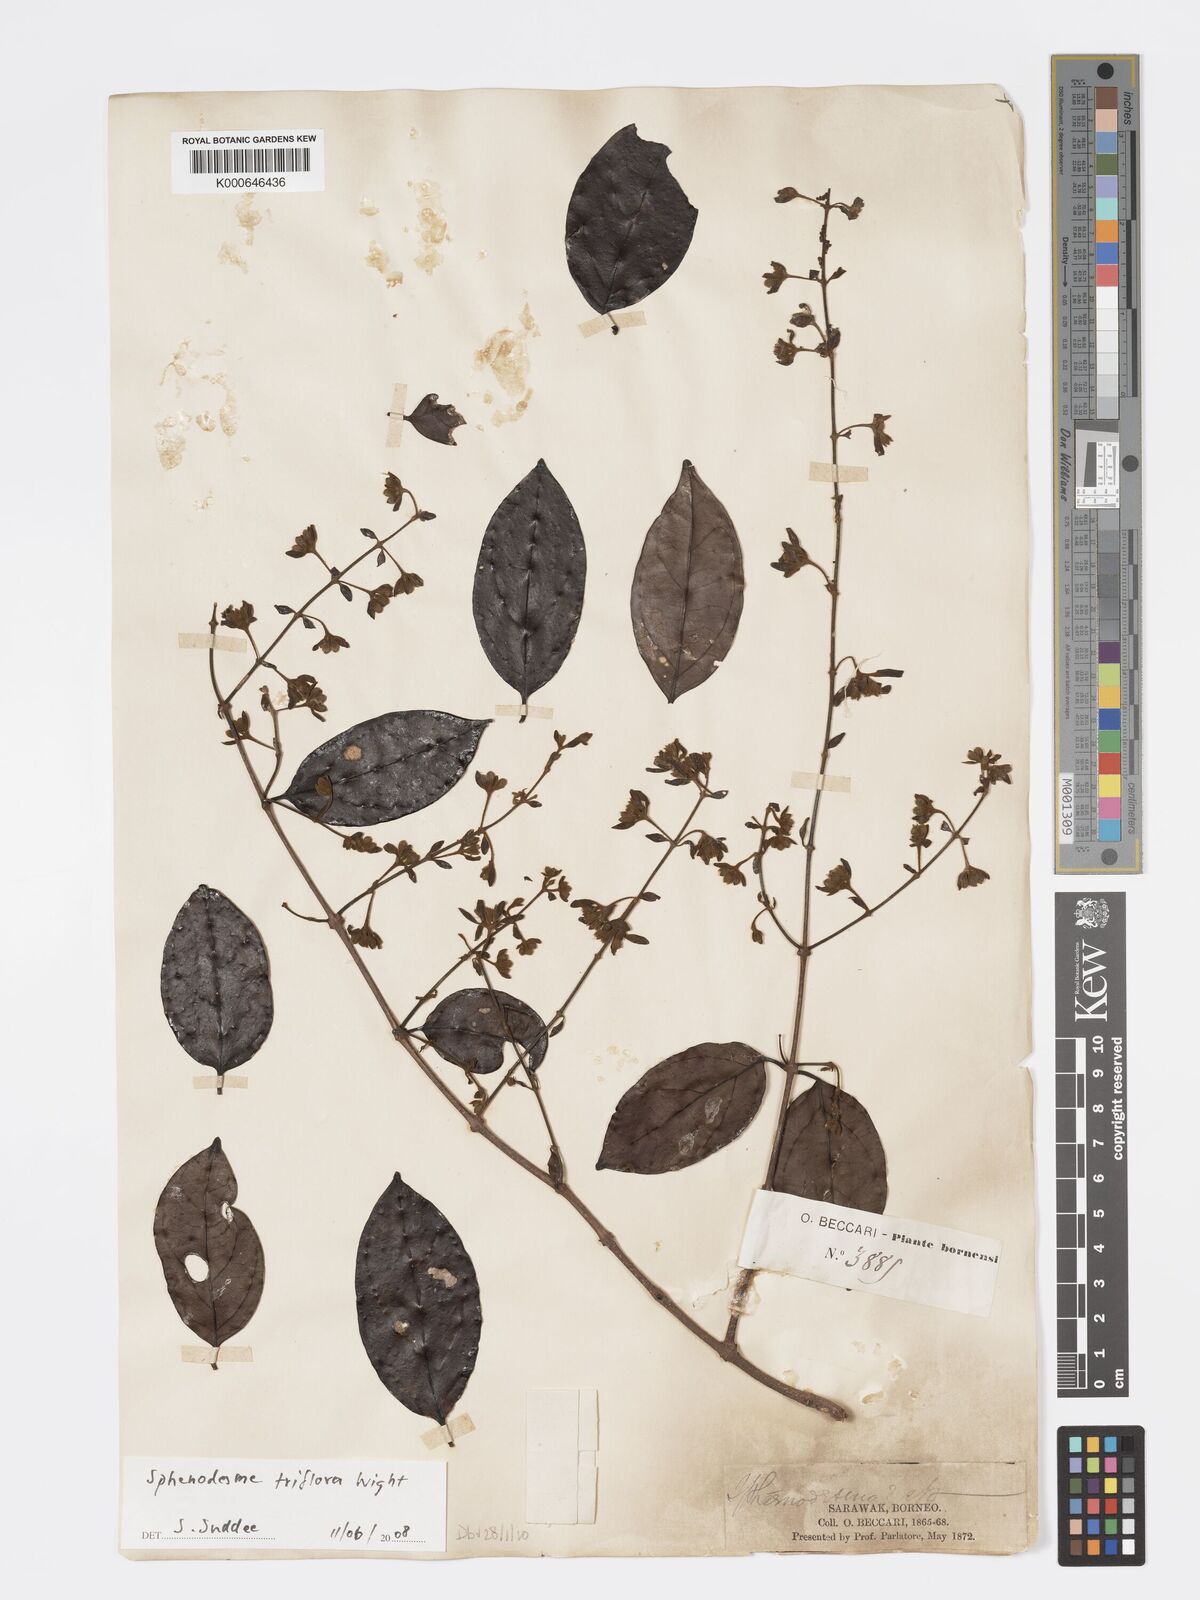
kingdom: Plantae
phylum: Tracheophyta
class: Magnoliopsida
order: Lamiales
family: Lamiaceae
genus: Sphenodesme
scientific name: Sphenodesme triflora
